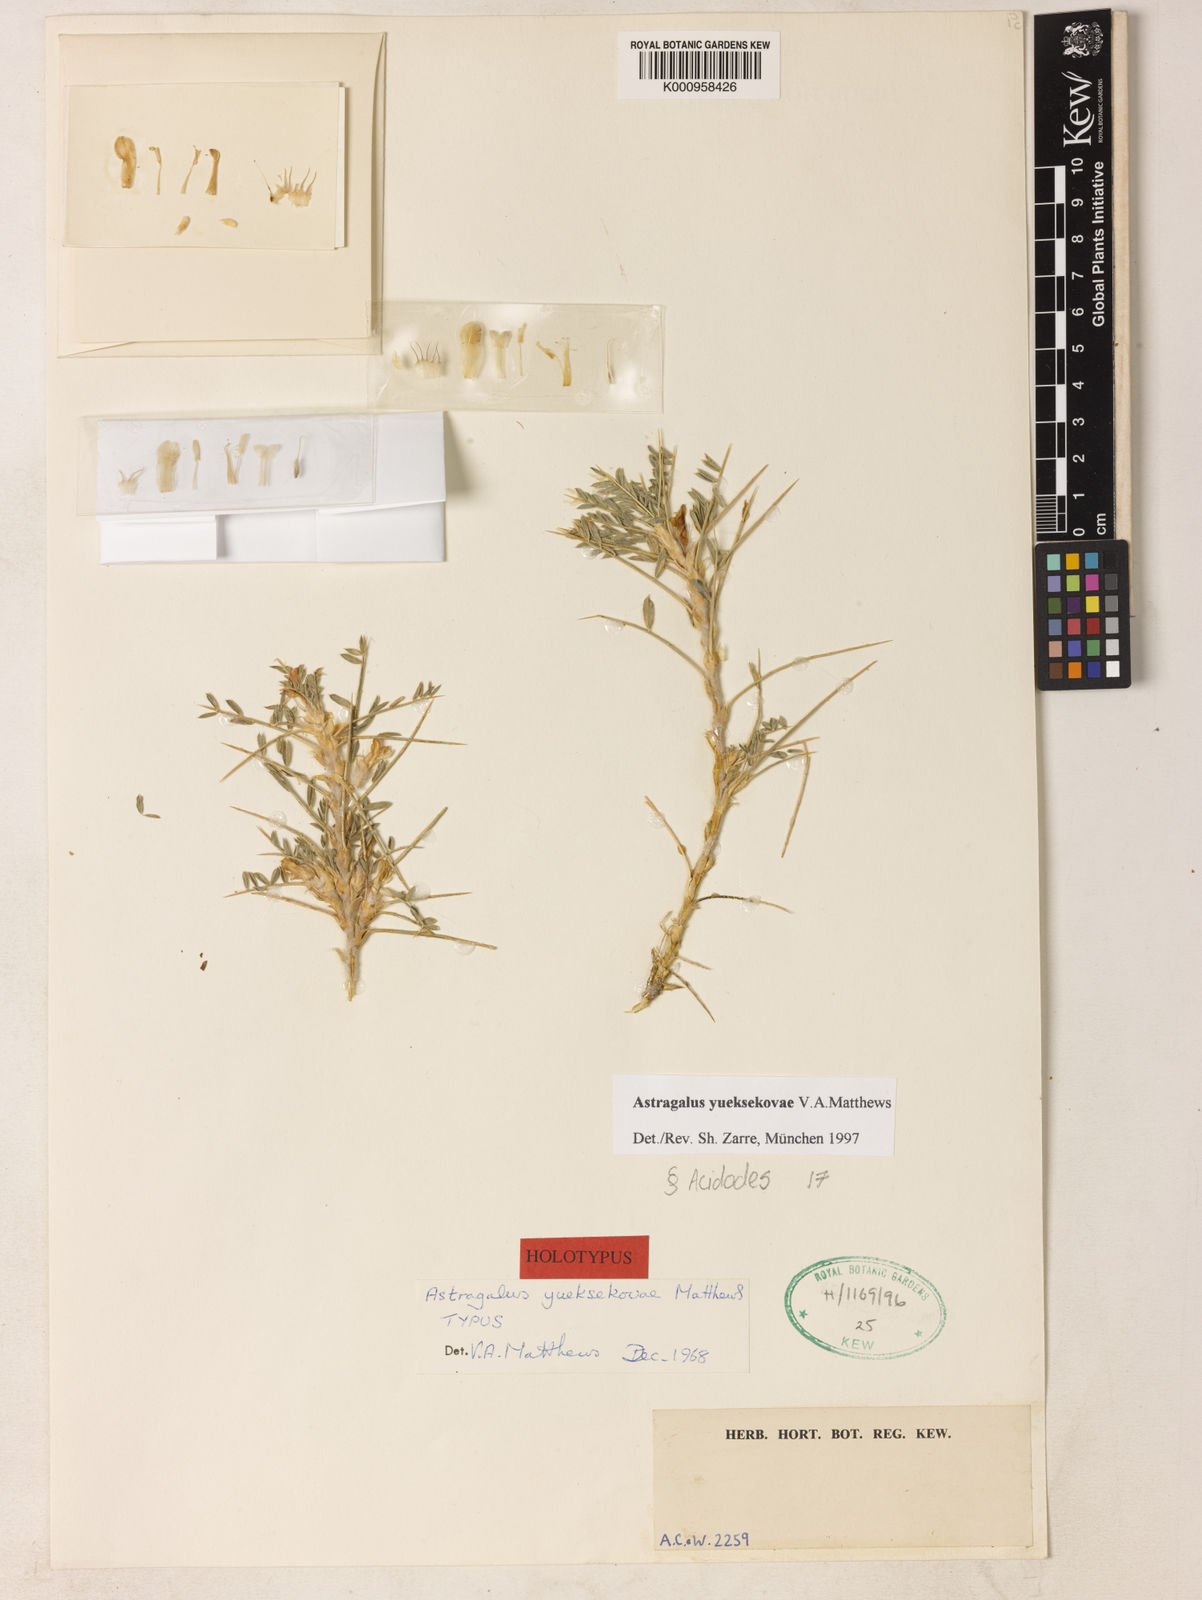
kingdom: Plantae
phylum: Tracheophyta
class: Magnoliopsida
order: Fabales
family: Fabaceae
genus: Astragalus
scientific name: Astragalus hystrix
